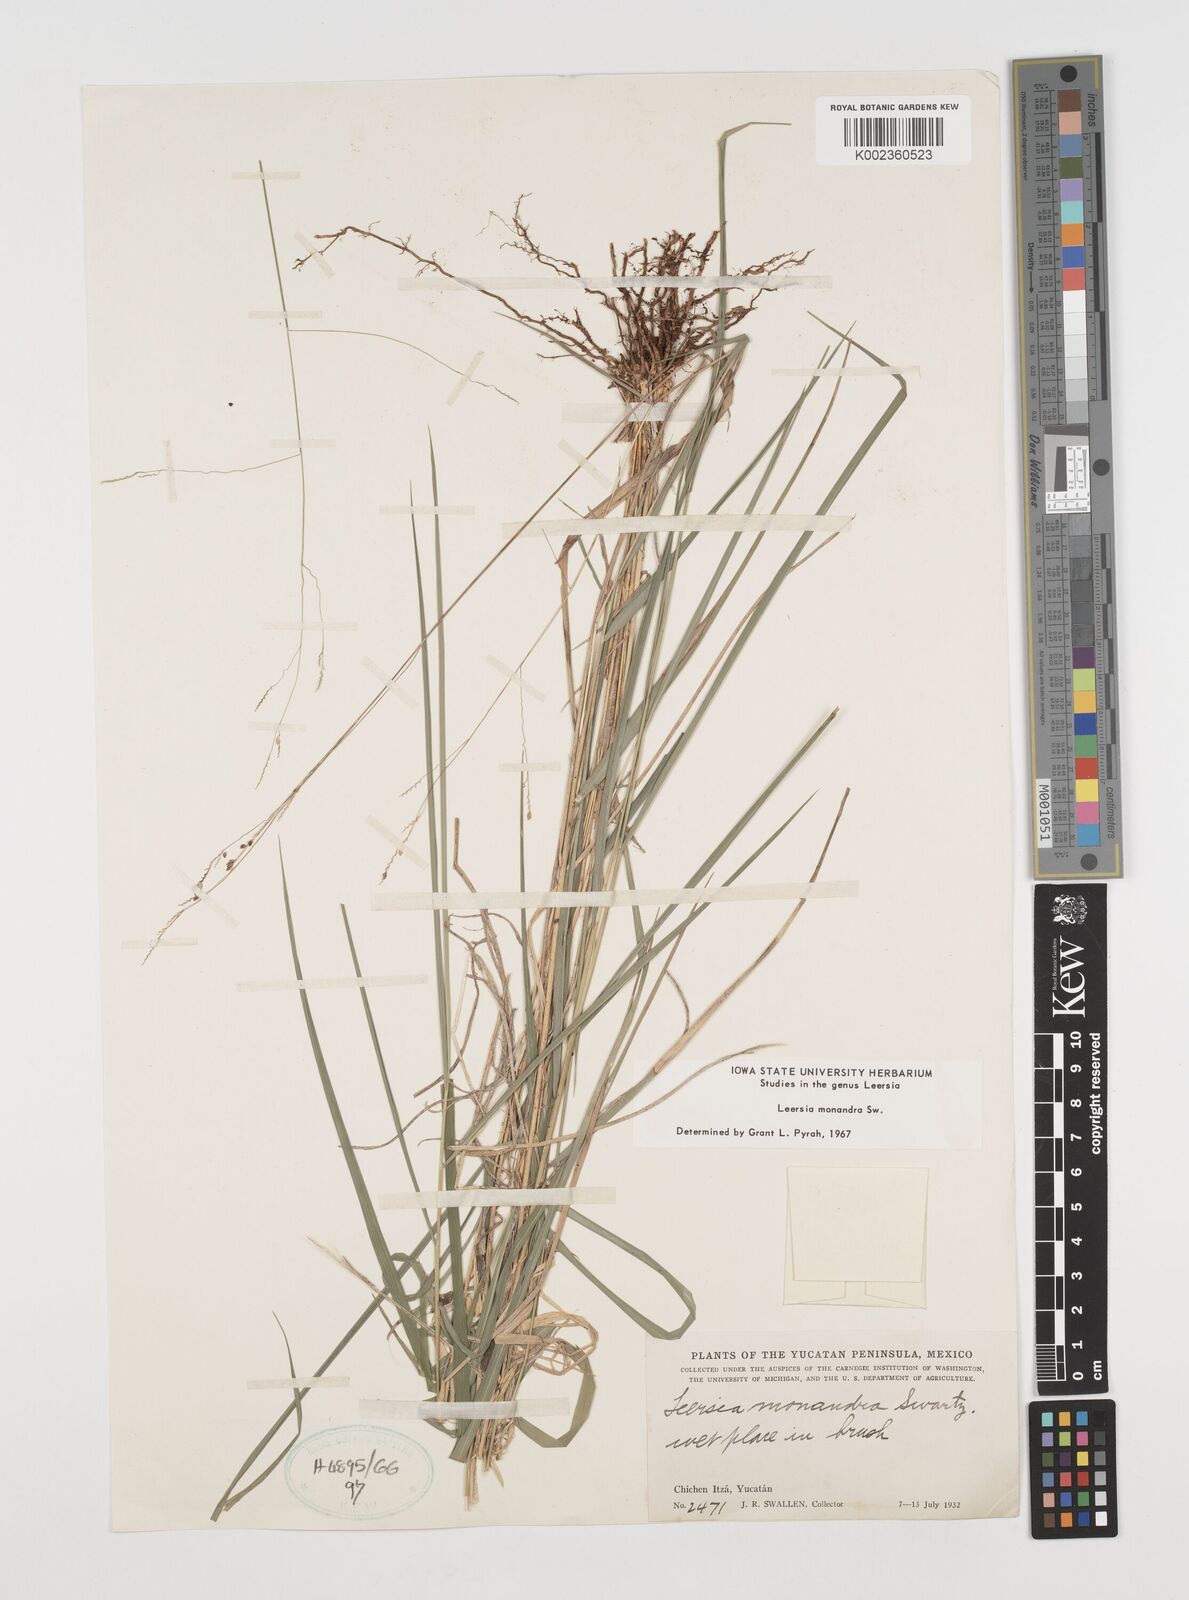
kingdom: Plantae
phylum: Tracheophyta
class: Liliopsida
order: Poales
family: Poaceae
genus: Leersia
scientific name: Leersia monandra
